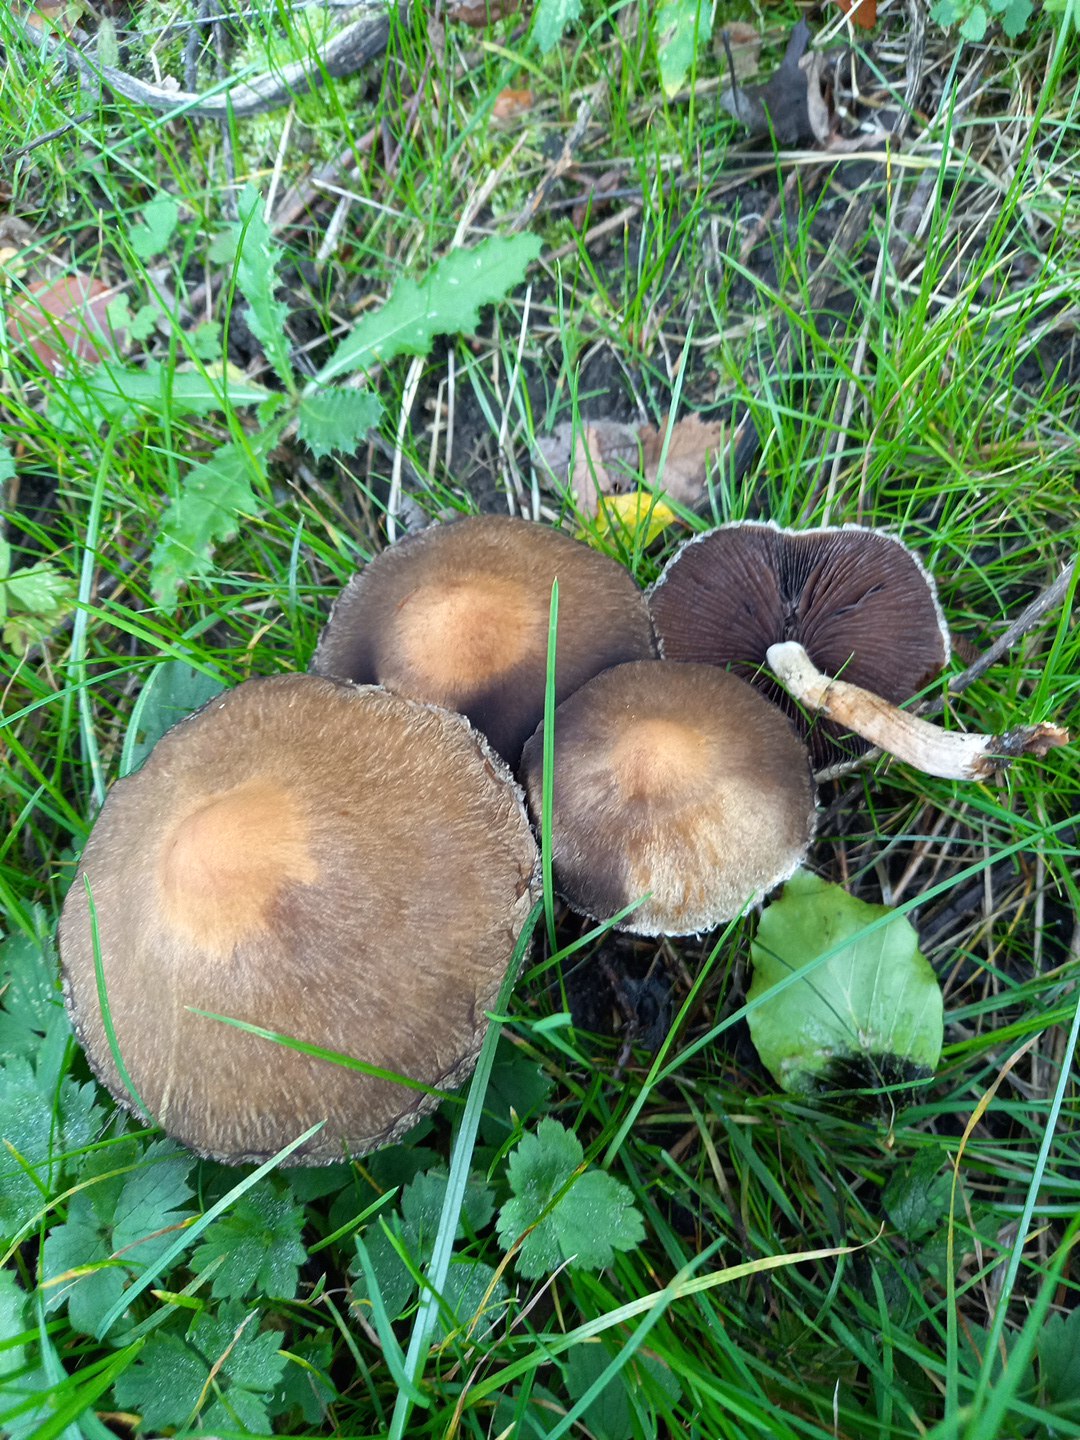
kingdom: Fungi
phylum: Basidiomycota
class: Agaricomycetes
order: Agaricales
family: Psathyrellaceae
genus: Lacrymaria
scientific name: Lacrymaria lacrymabunda
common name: grædende mørkhat
